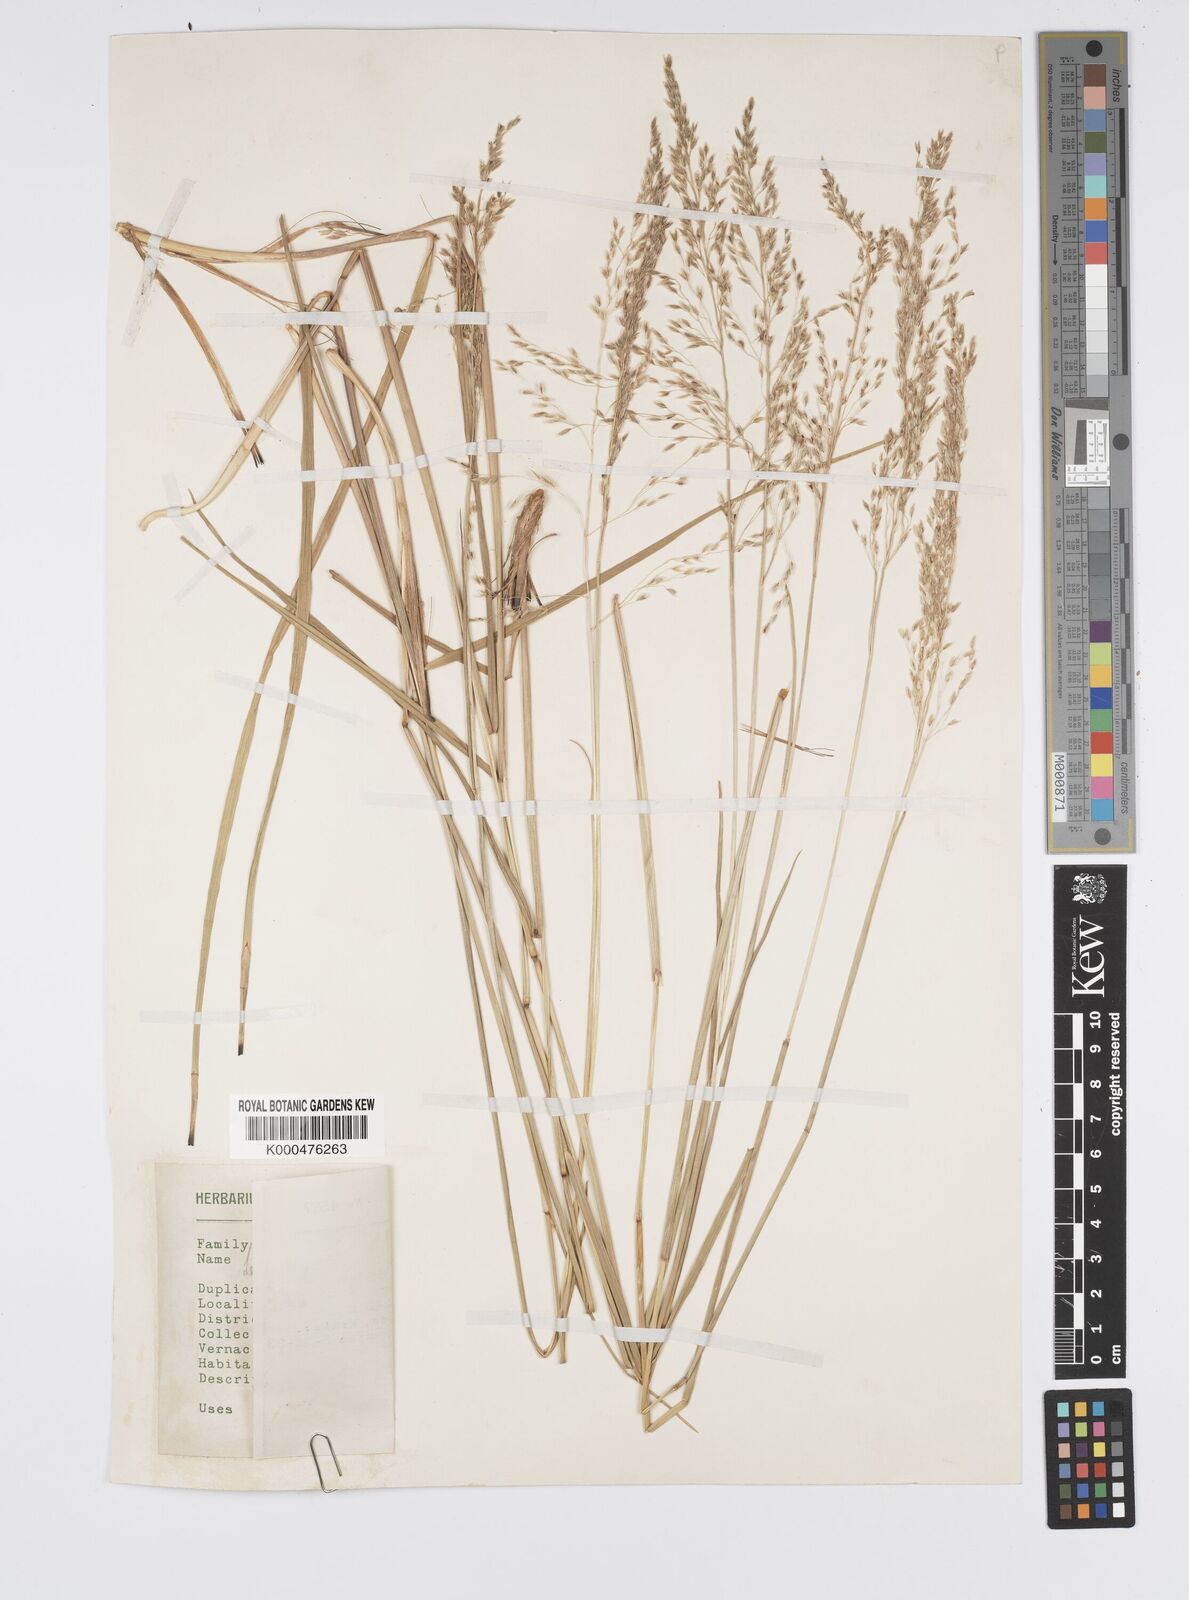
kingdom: Plantae
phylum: Tracheophyta
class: Liliopsida
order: Poales
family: Poaceae
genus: Anthenantia
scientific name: Anthenantia lanata
